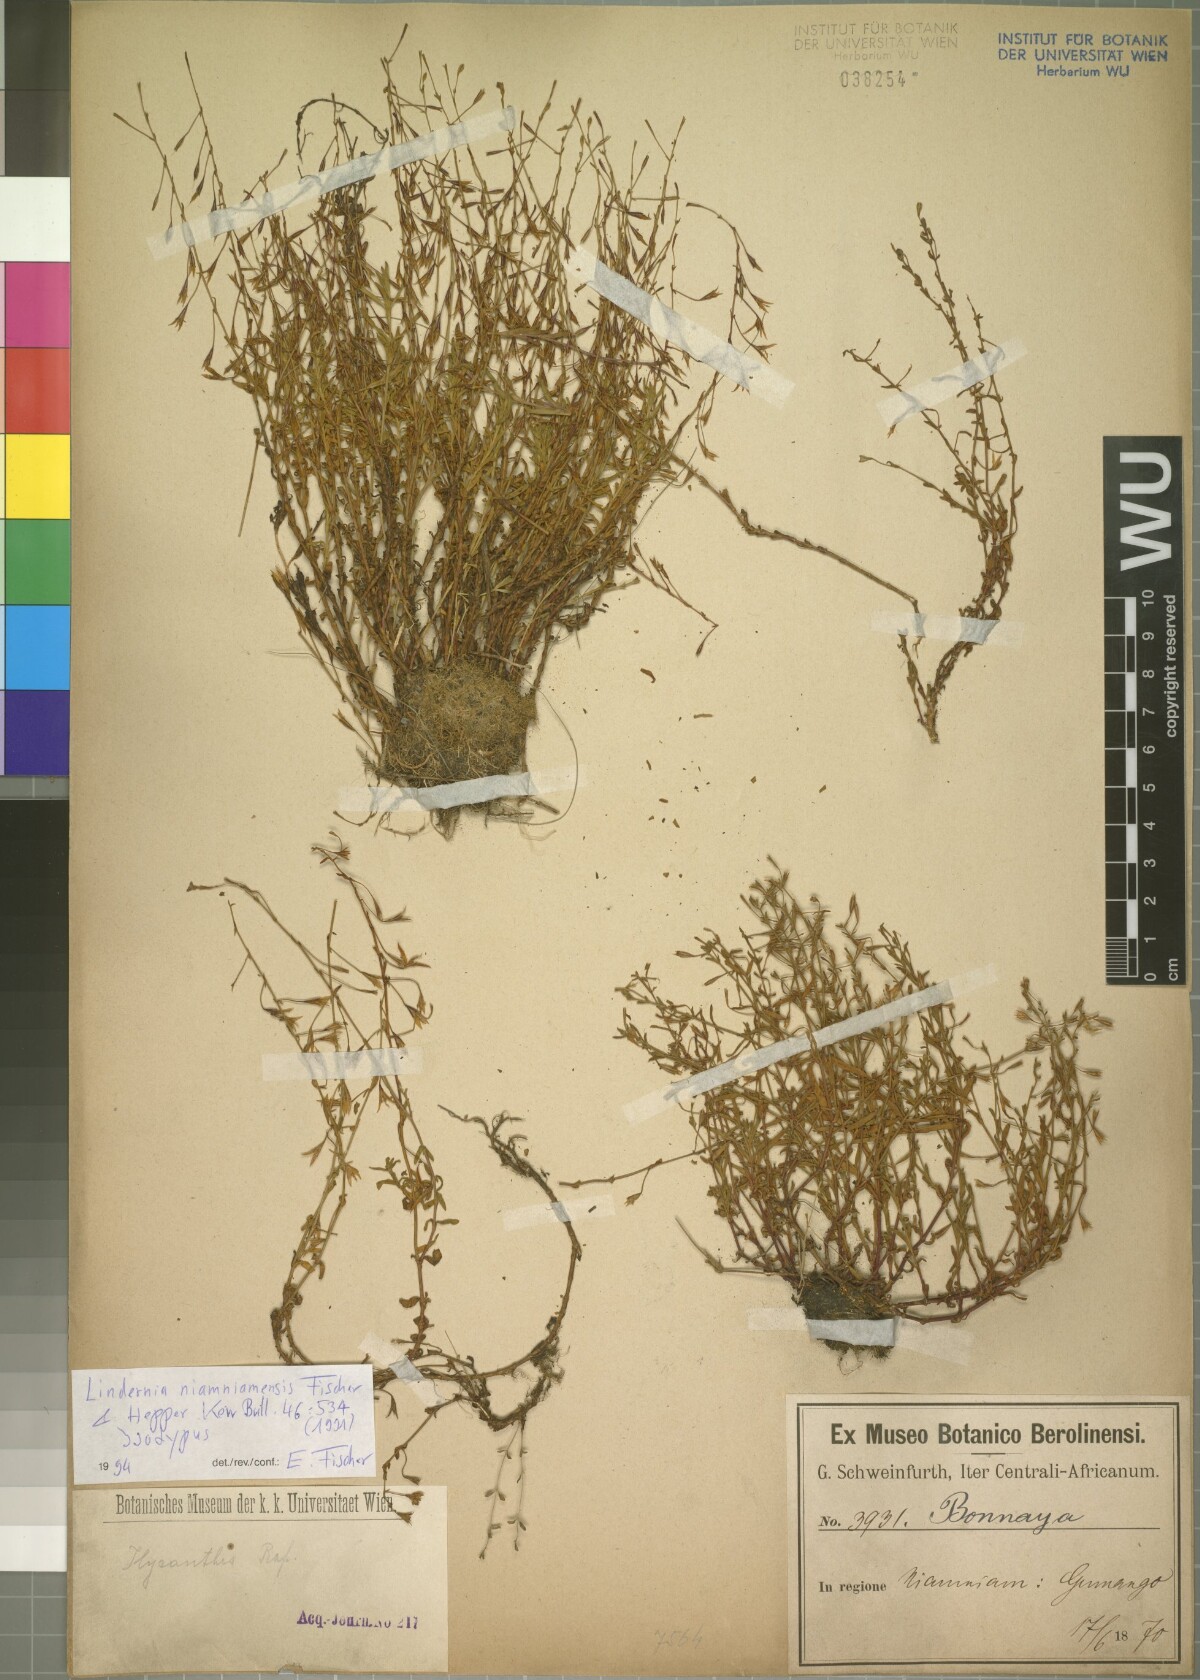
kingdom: Plantae
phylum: Tracheophyta
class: Magnoliopsida
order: Lamiales
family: Linderniaceae
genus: Craterostigma
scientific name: Craterostigma niamniamense
